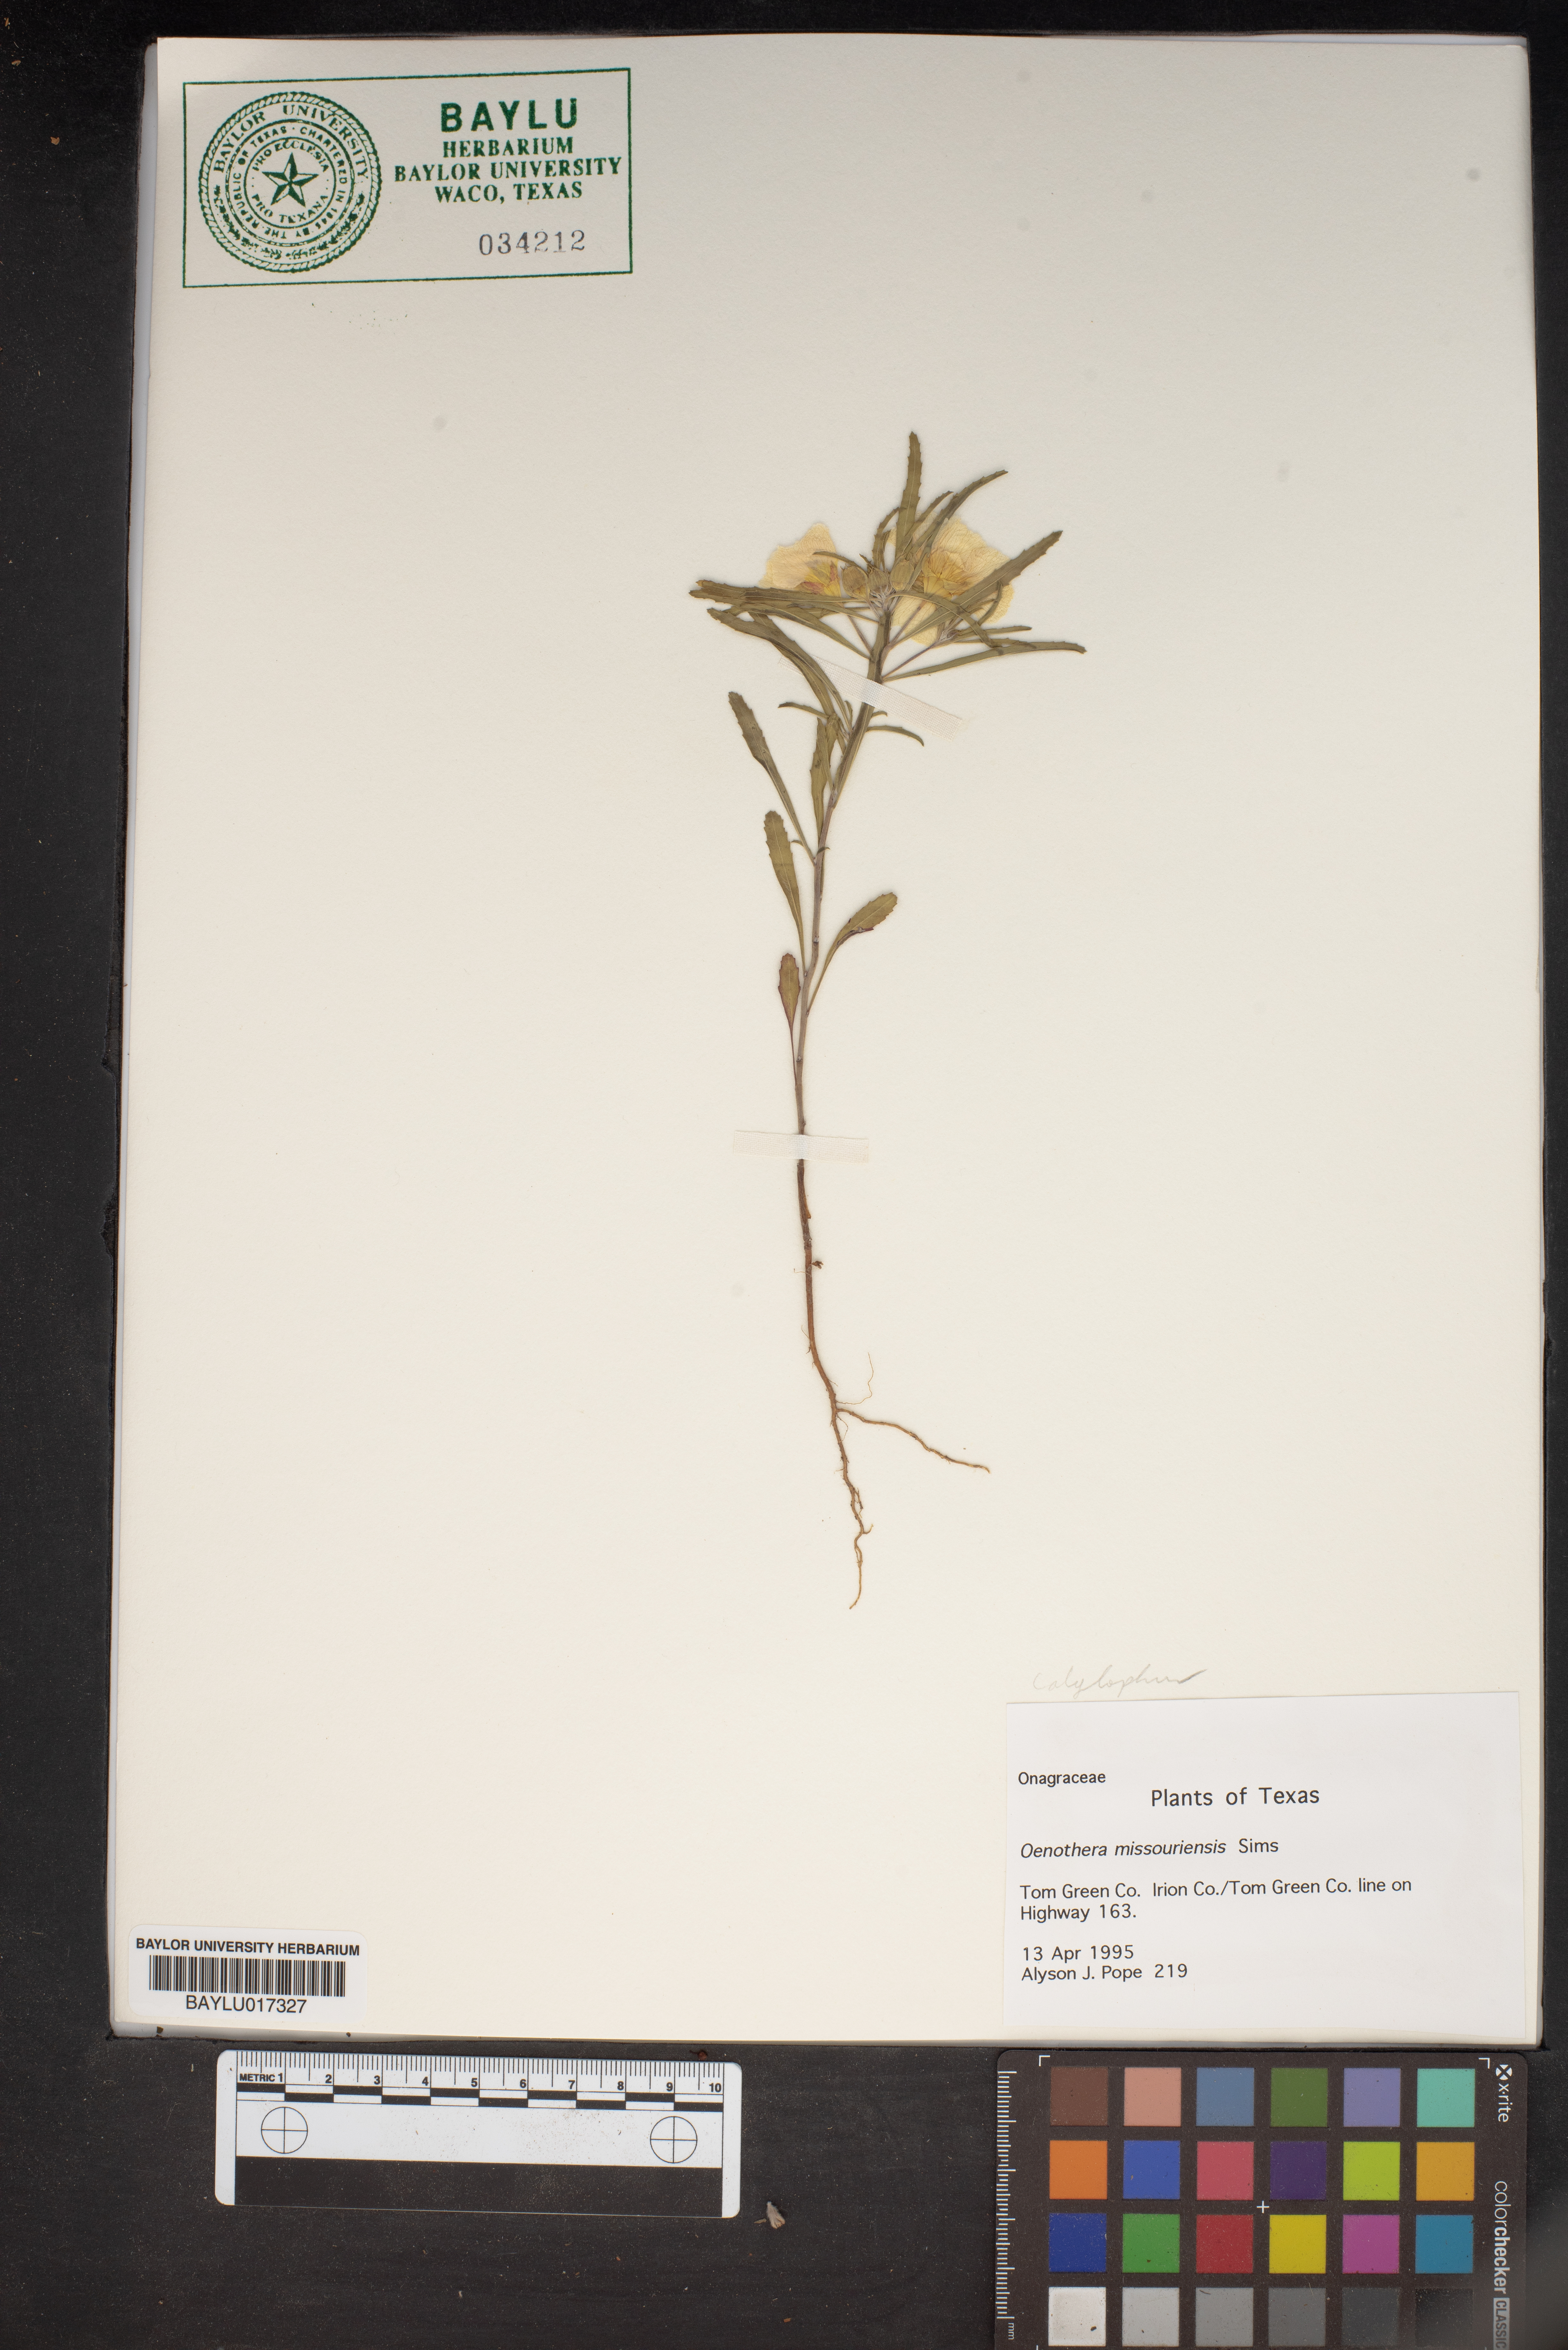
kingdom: Plantae
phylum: Tracheophyta
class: Magnoliopsida
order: Myrtales
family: Onagraceae
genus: Oenothera
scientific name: Oenothera macrocarpa
